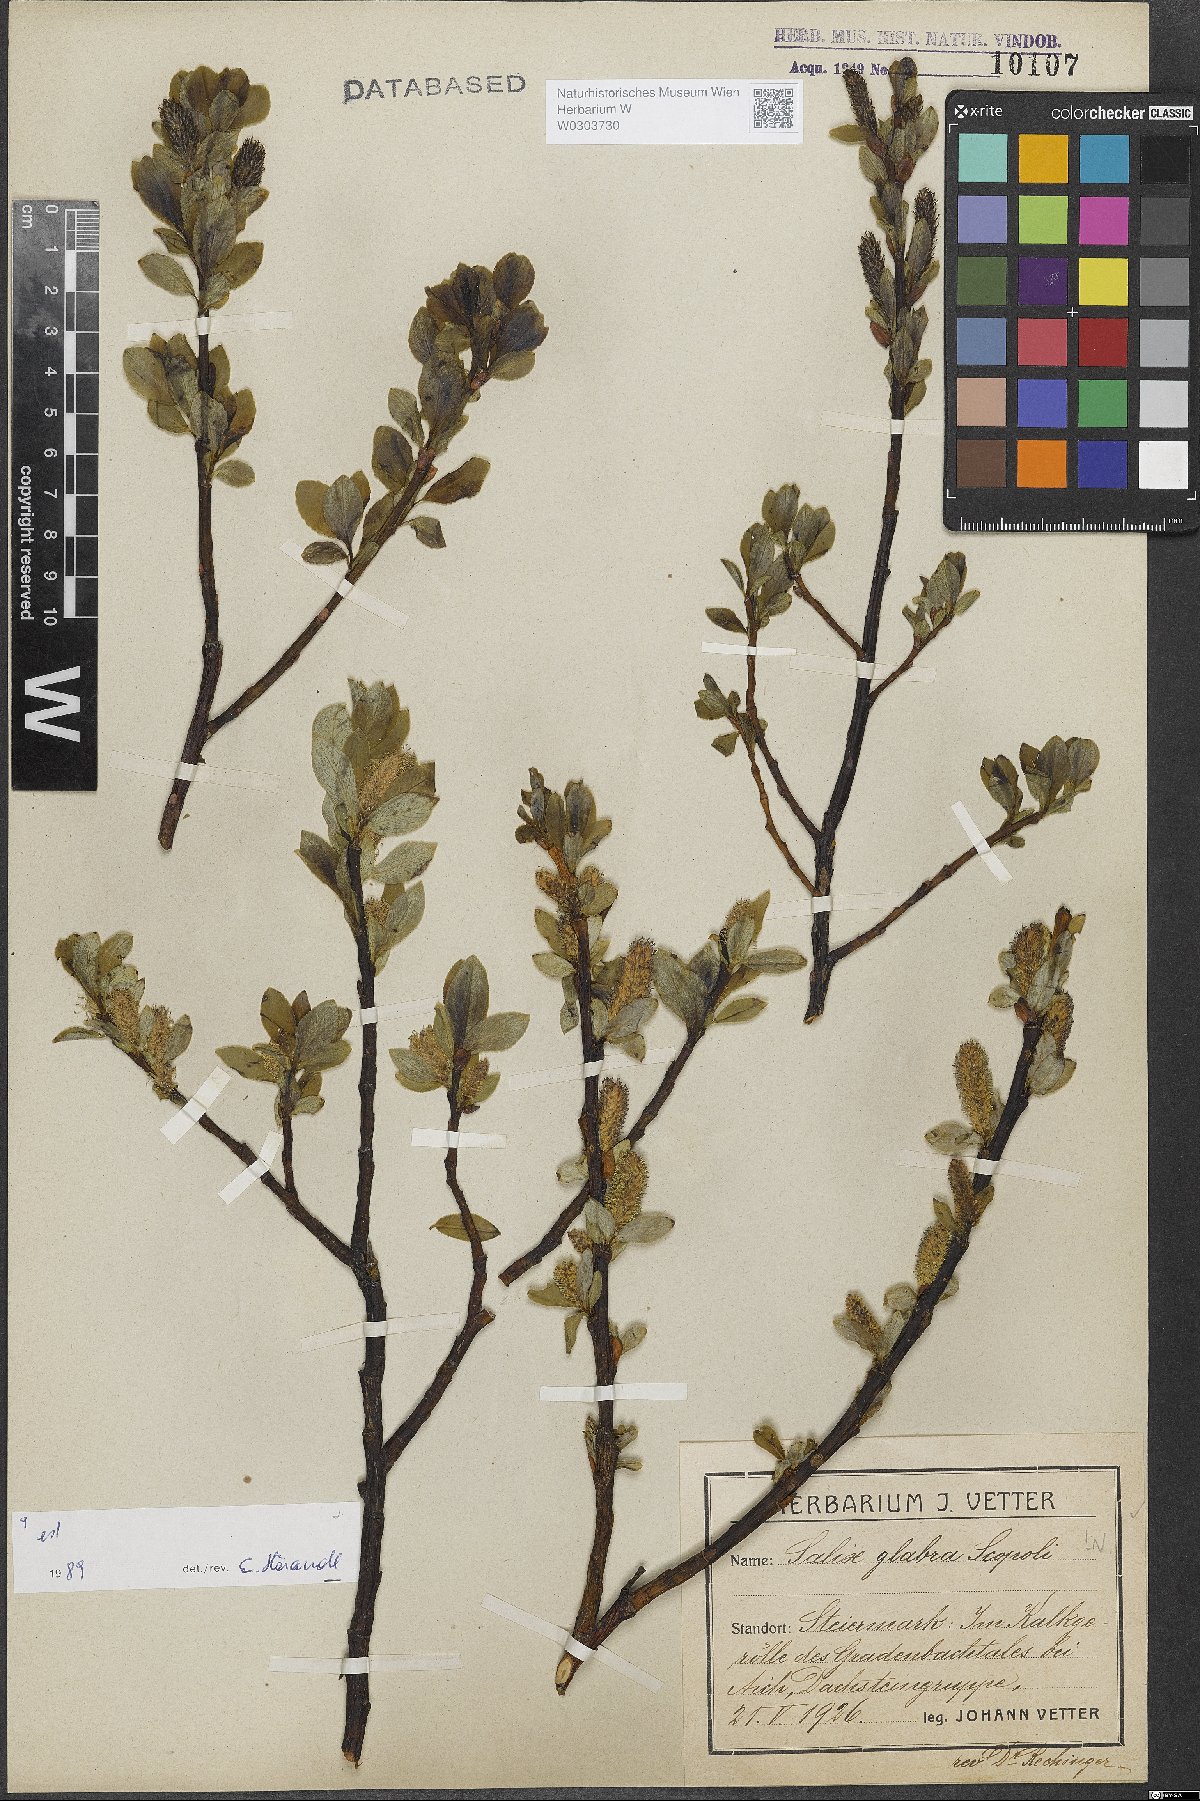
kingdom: Plantae
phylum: Tracheophyta
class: Magnoliopsida
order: Malpighiales
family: Salicaceae
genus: Salix
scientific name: Salix glabra
